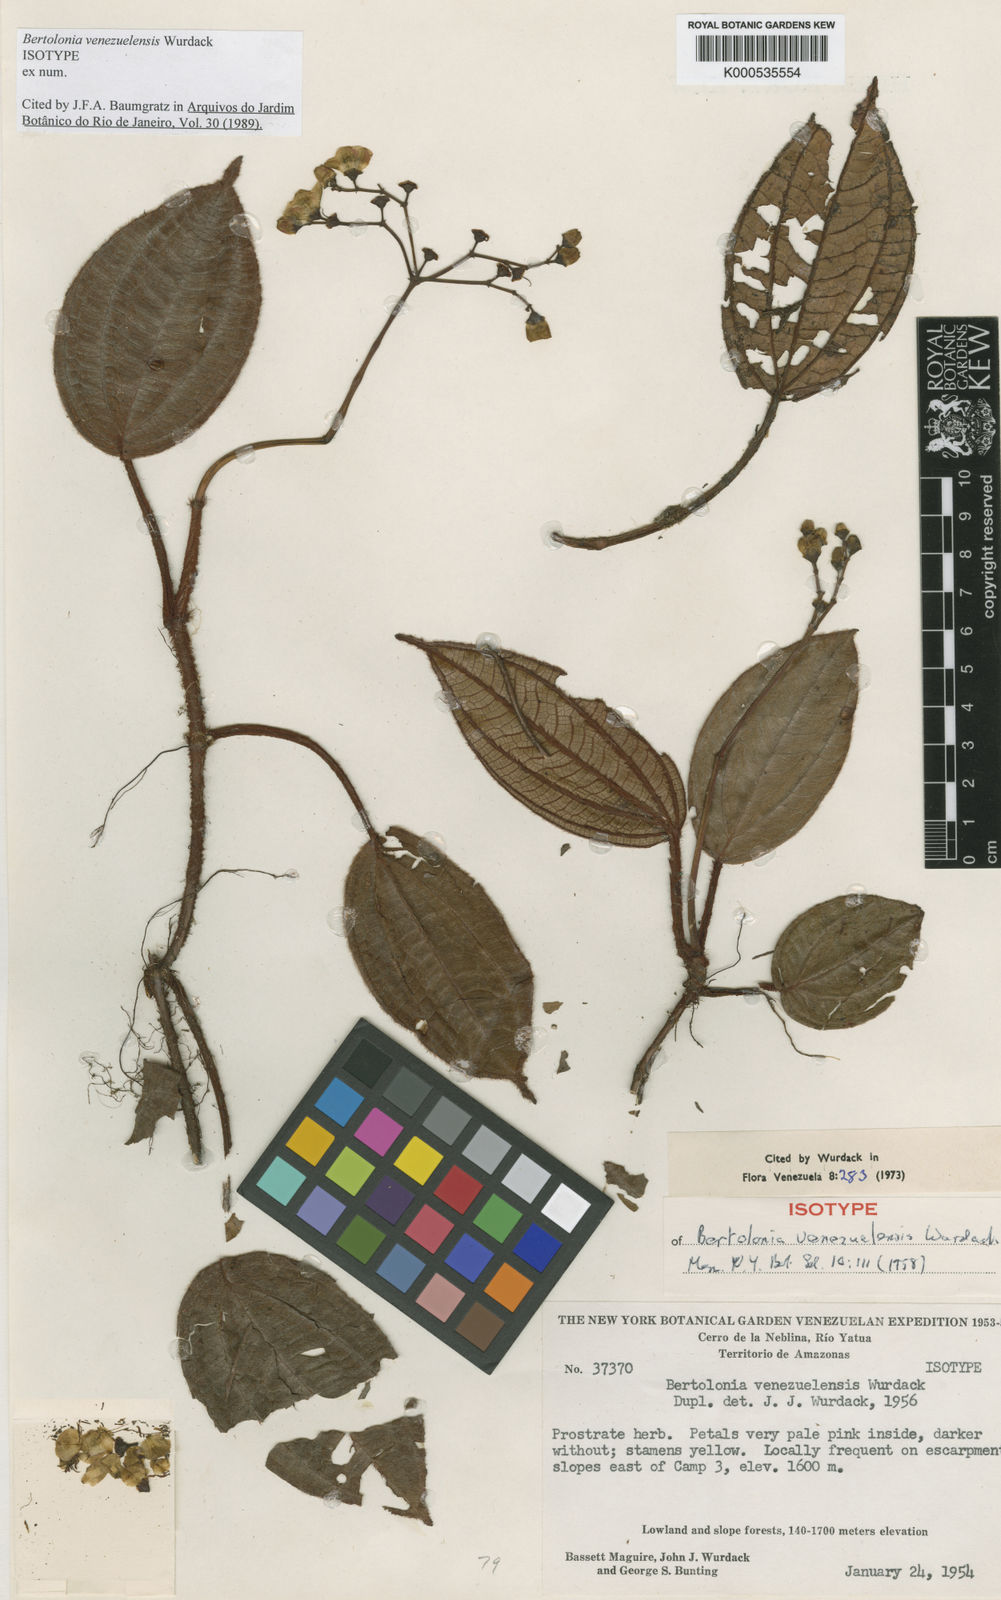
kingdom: Plantae
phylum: Tracheophyta
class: Magnoliopsida
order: Myrtales
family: Melastomataceae
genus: Bertolonia
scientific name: Bertolonia venezuelensis
